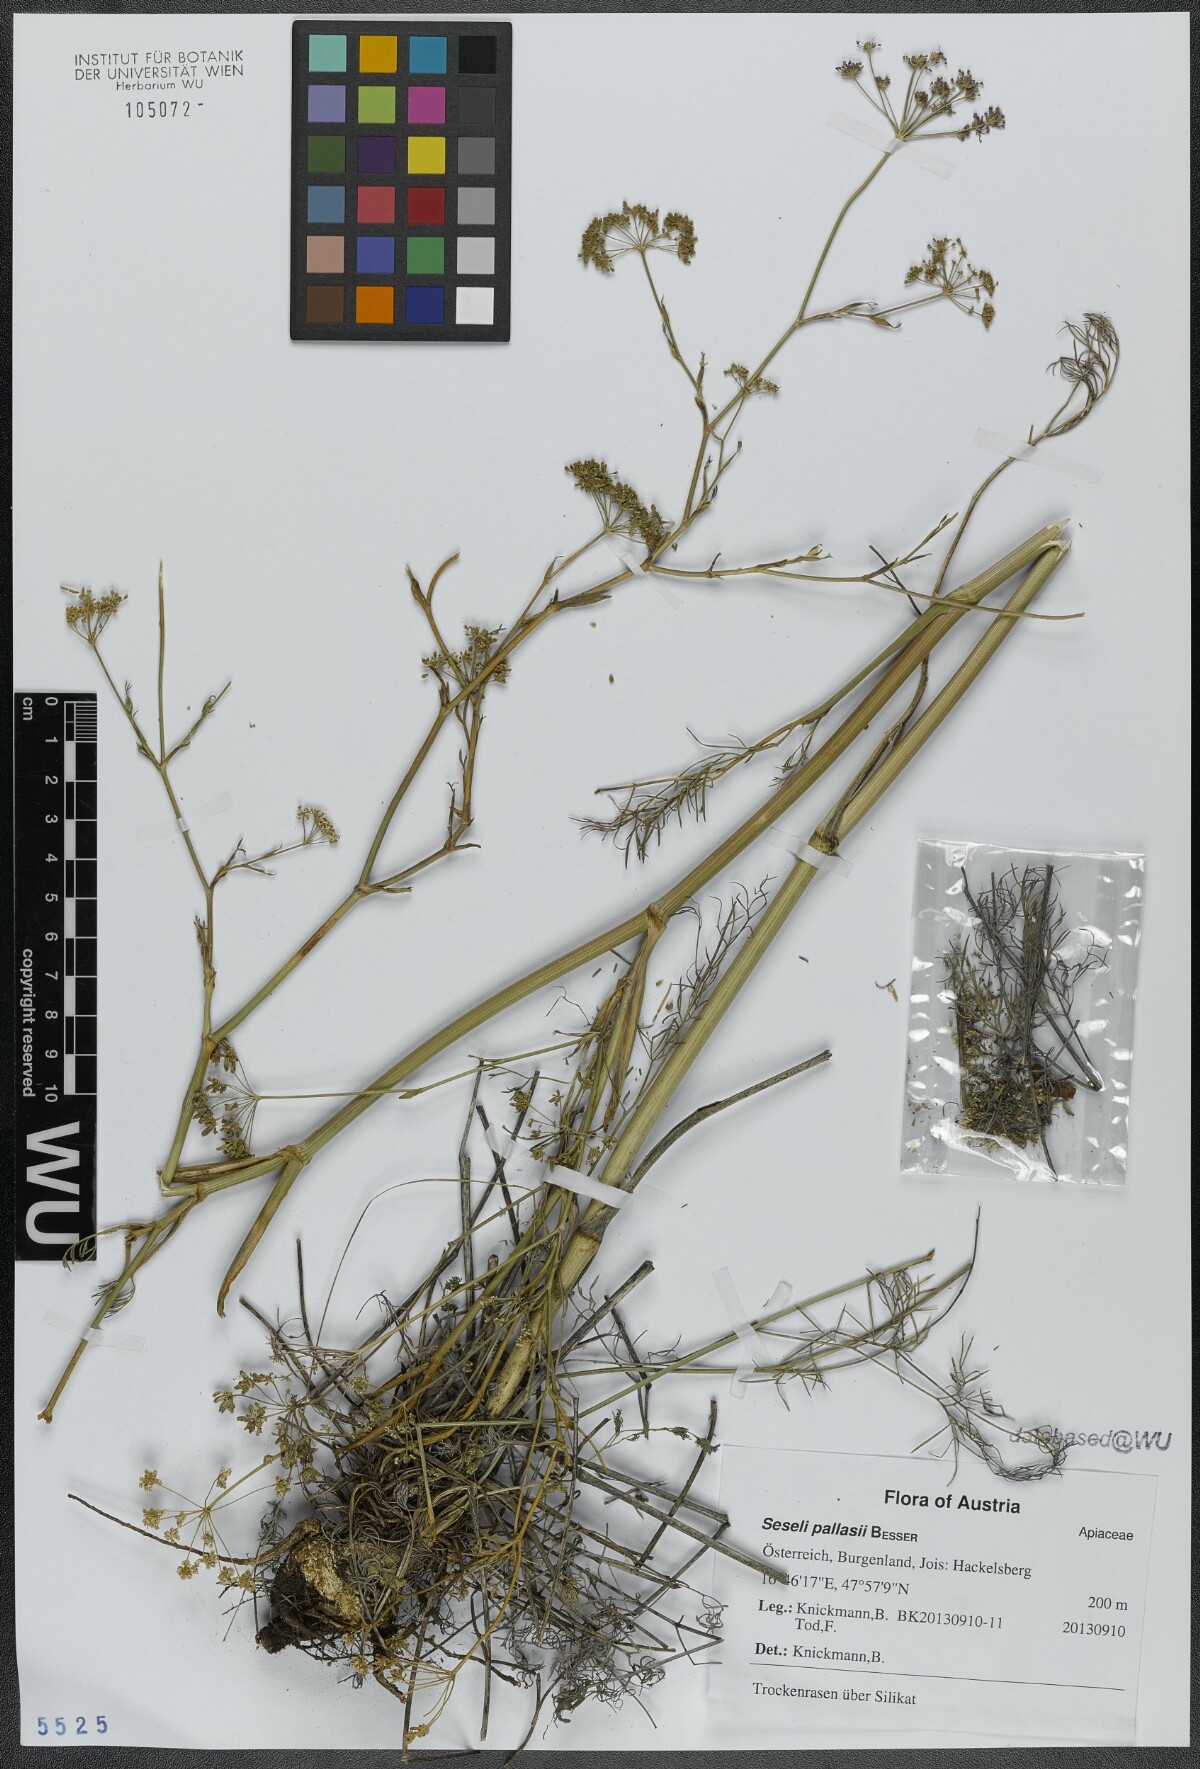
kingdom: Plantae
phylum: Tracheophyta
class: Magnoliopsida
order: Apiales
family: Apiaceae
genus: Seseli
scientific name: Seseli pallasii
